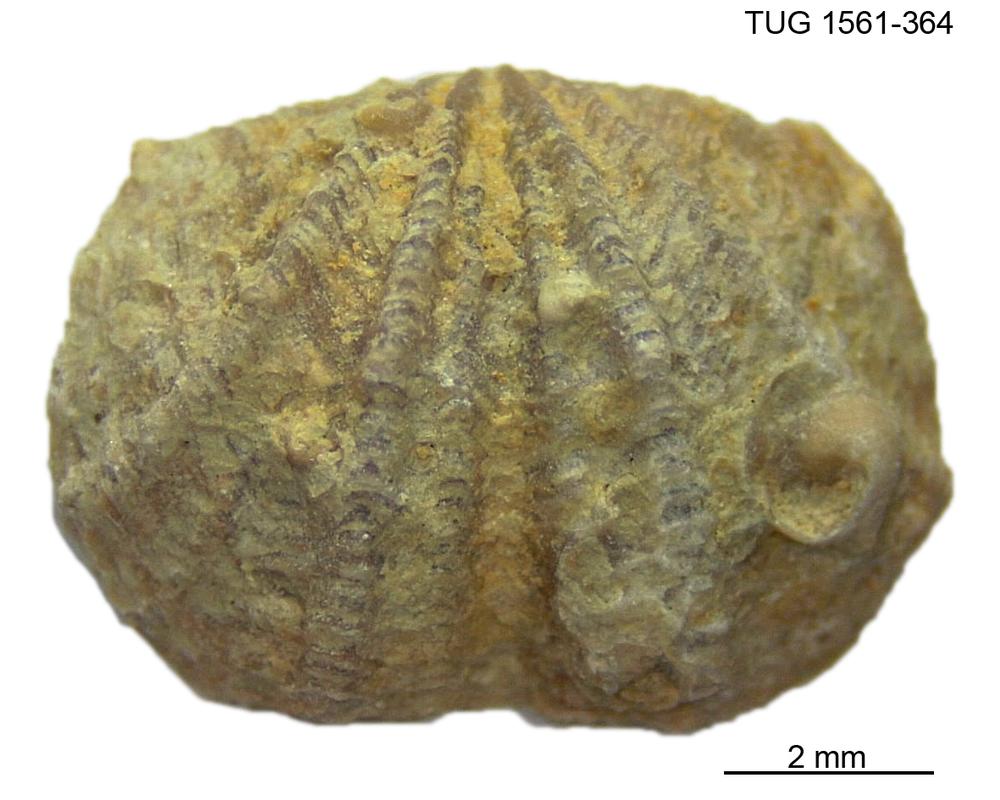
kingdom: Animalia
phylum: Brachiopoda
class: Rhynchonellata
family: Hesperorthidae
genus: Ptychopleurella
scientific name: Ptychopleurella Orthis bouchardi
